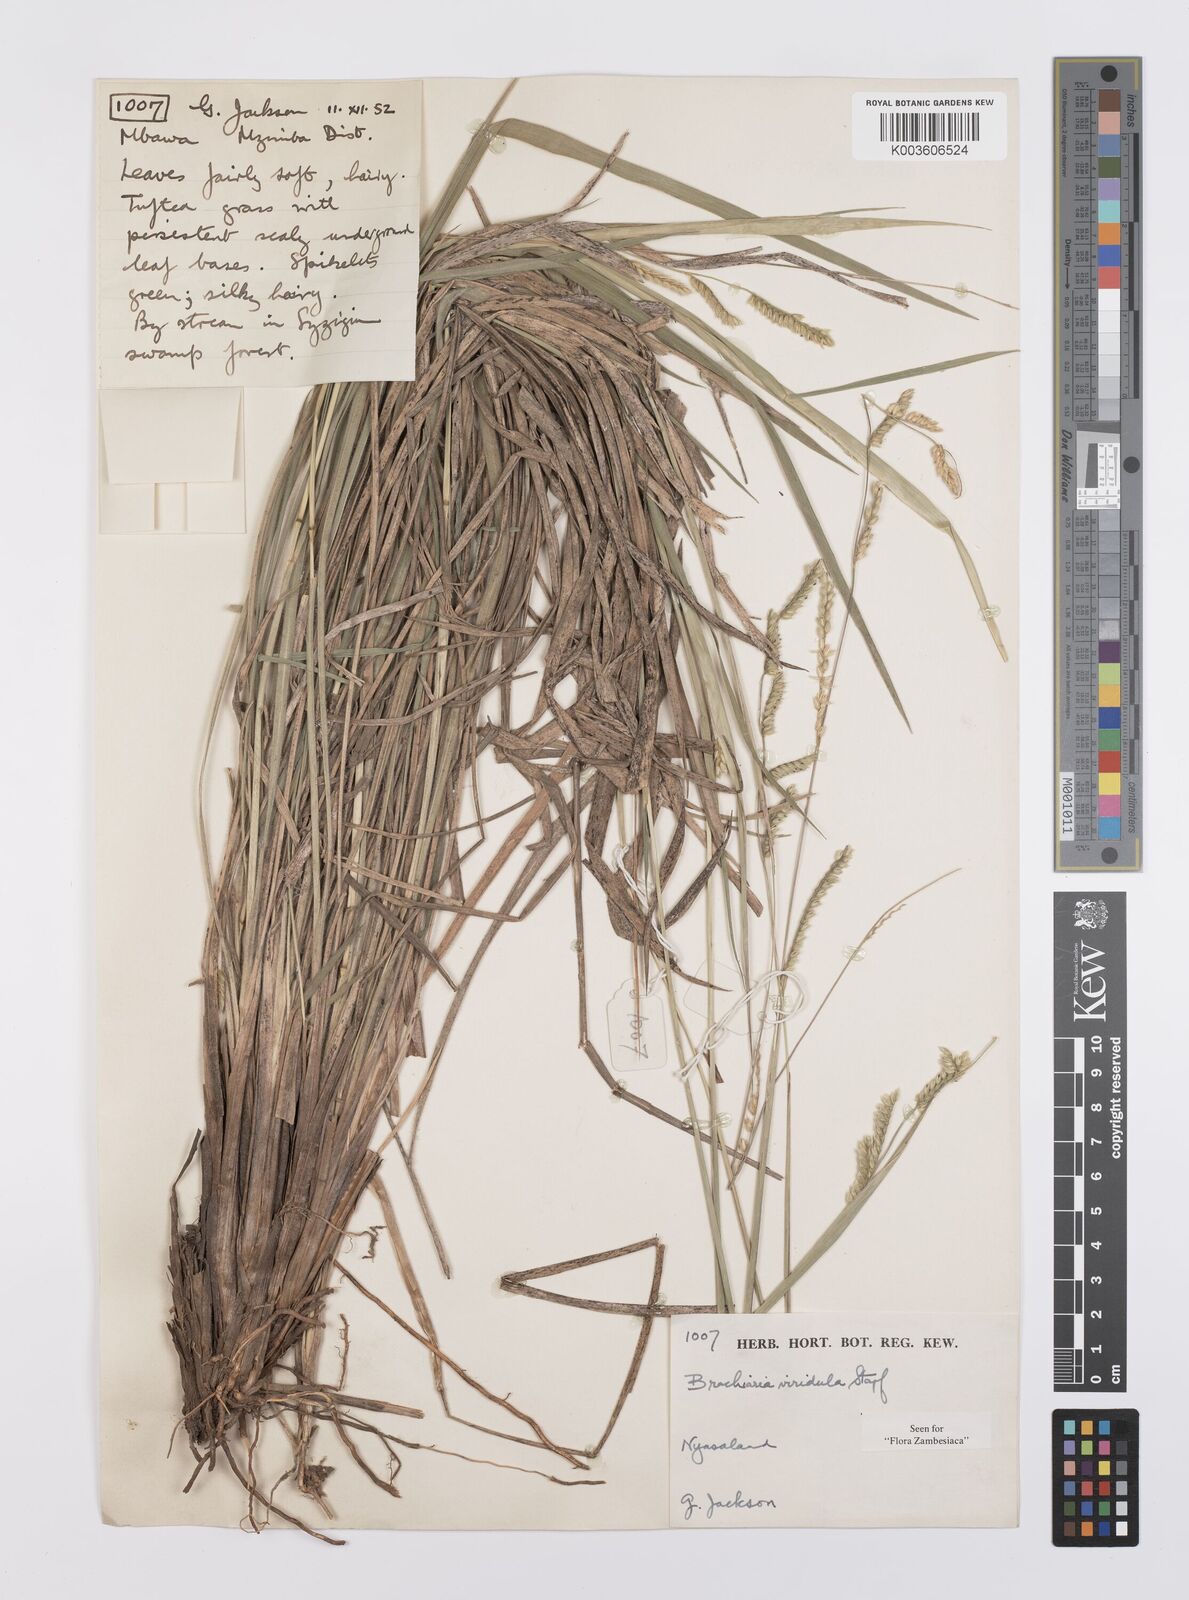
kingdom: Plantae
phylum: Tracheophyta
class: Liliopsida
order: Poales
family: Poaceae
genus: Urochloa
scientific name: Urochloa bovonei
